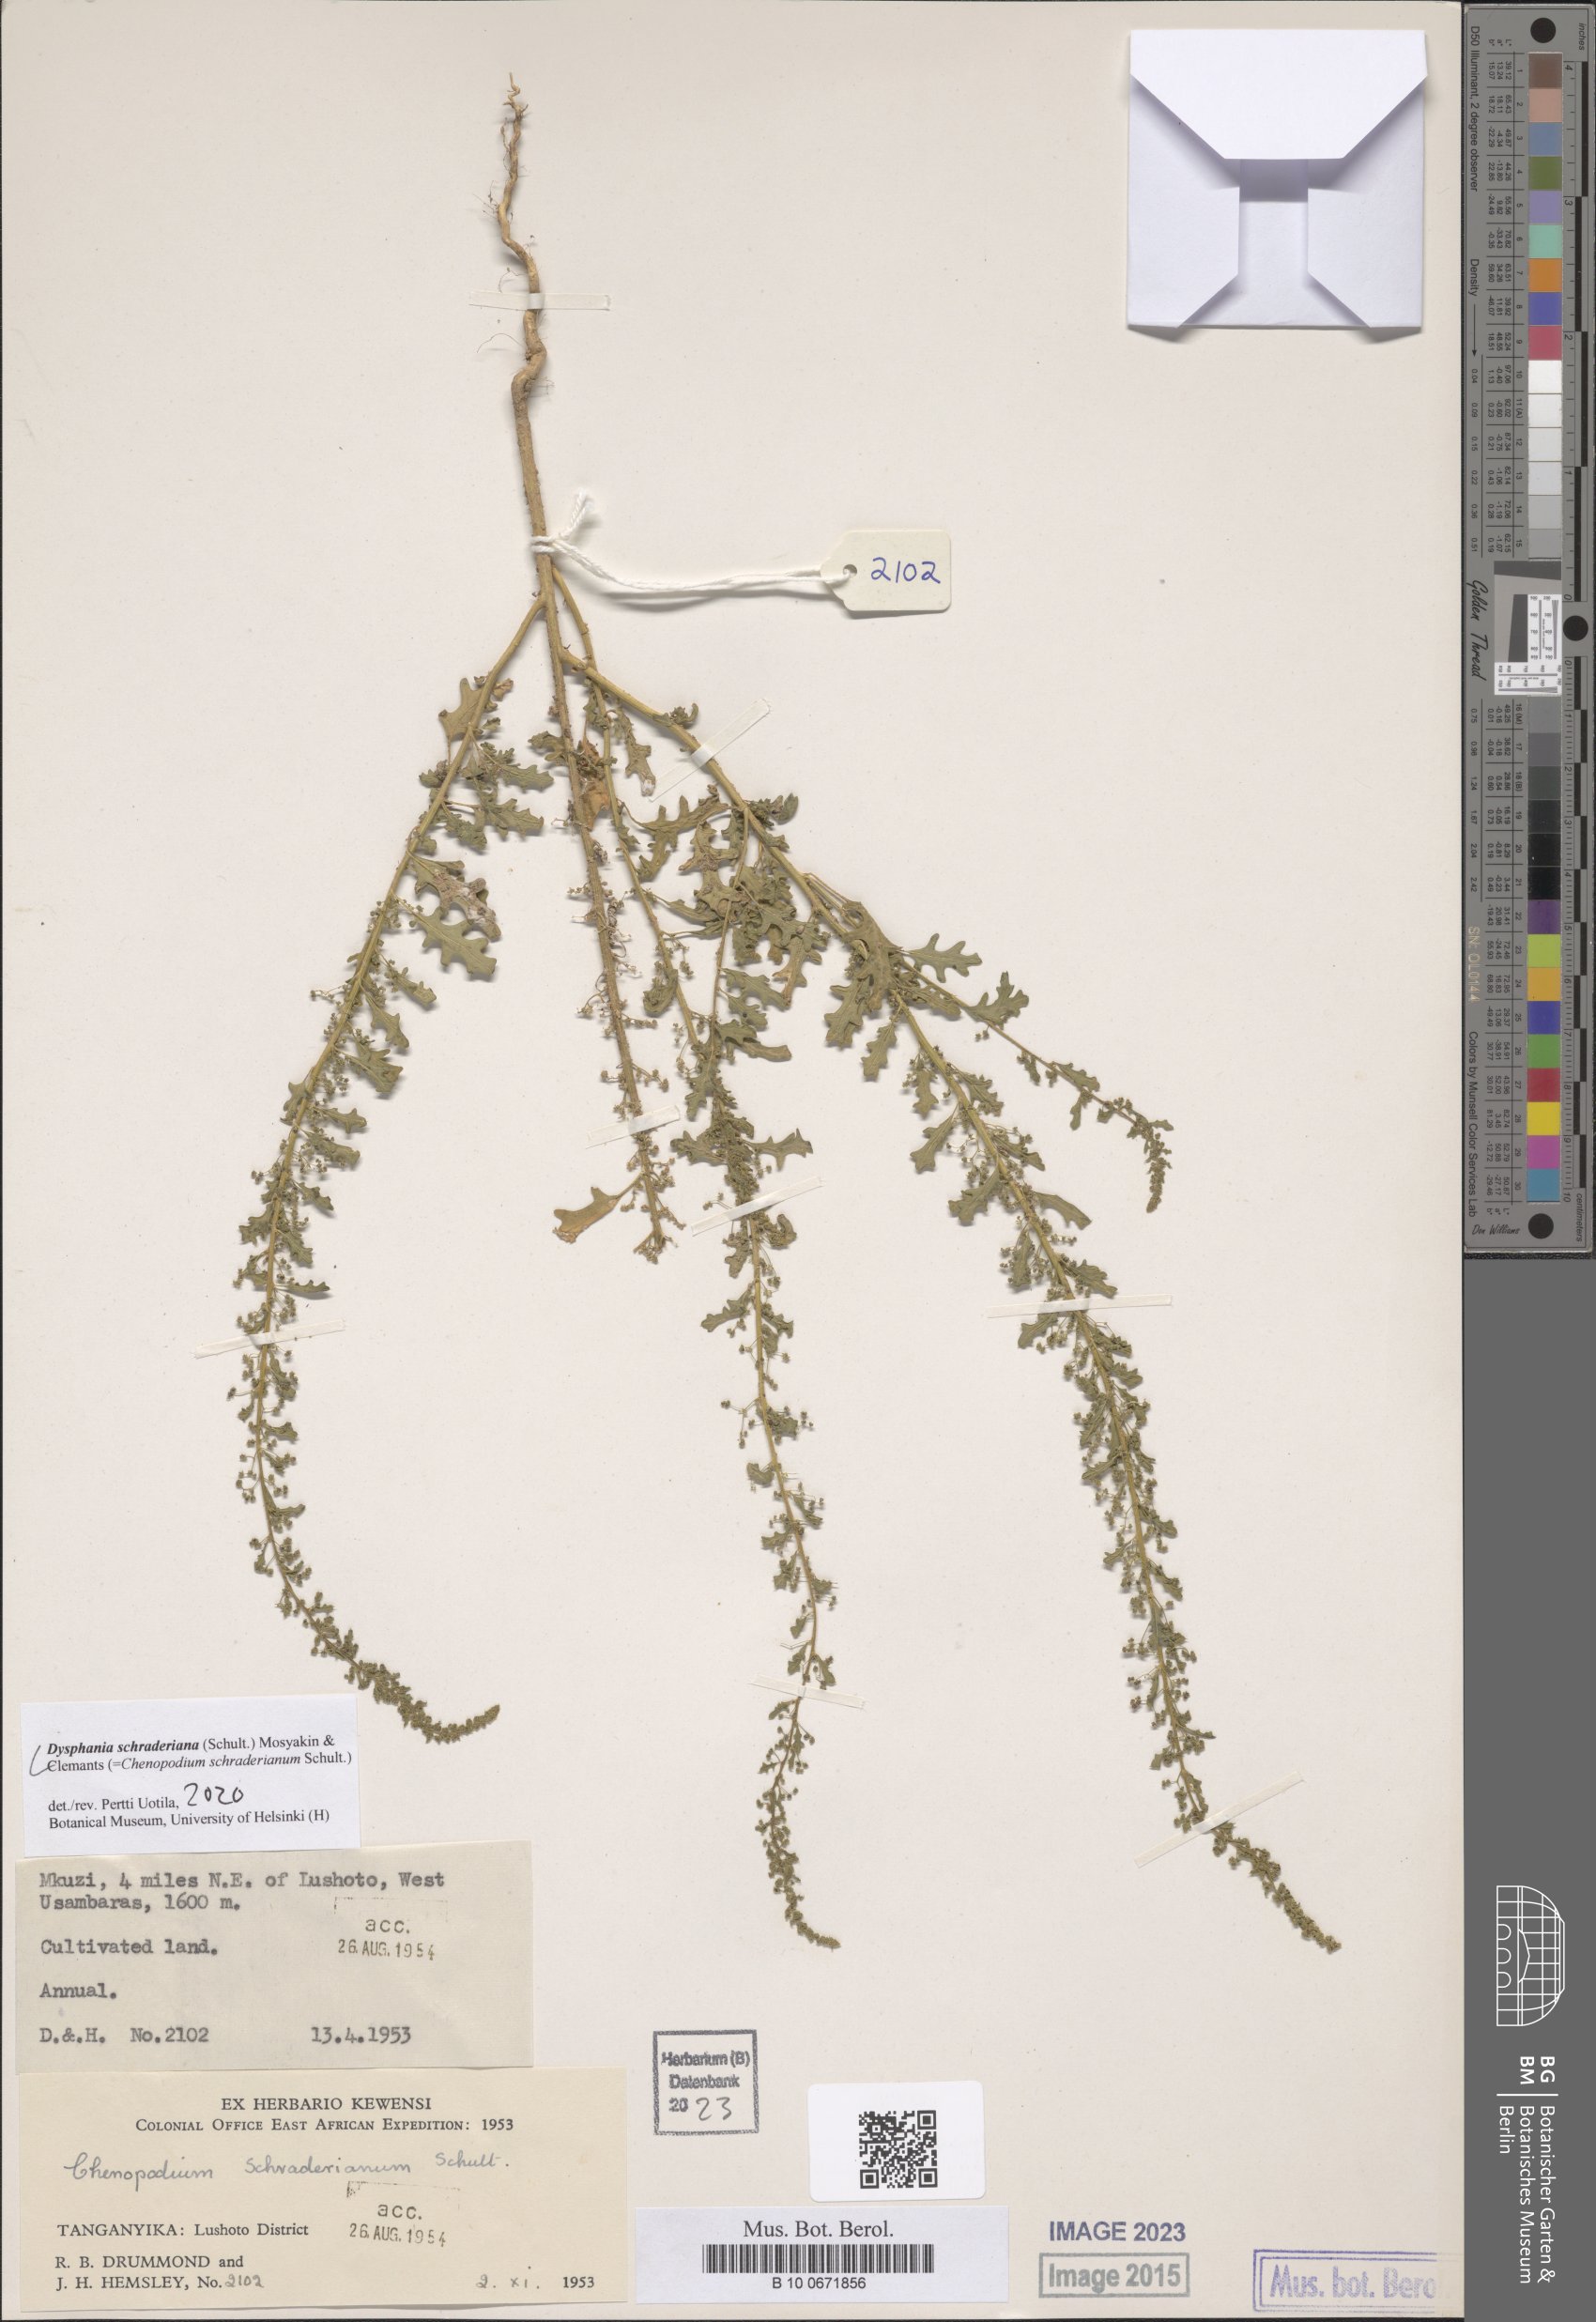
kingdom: Plantae
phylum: Tracheophyta
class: Magnoliopsida
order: Caryophyllales
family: Amaranthaceae
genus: Dysphania
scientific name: Dysphania schraderiana
